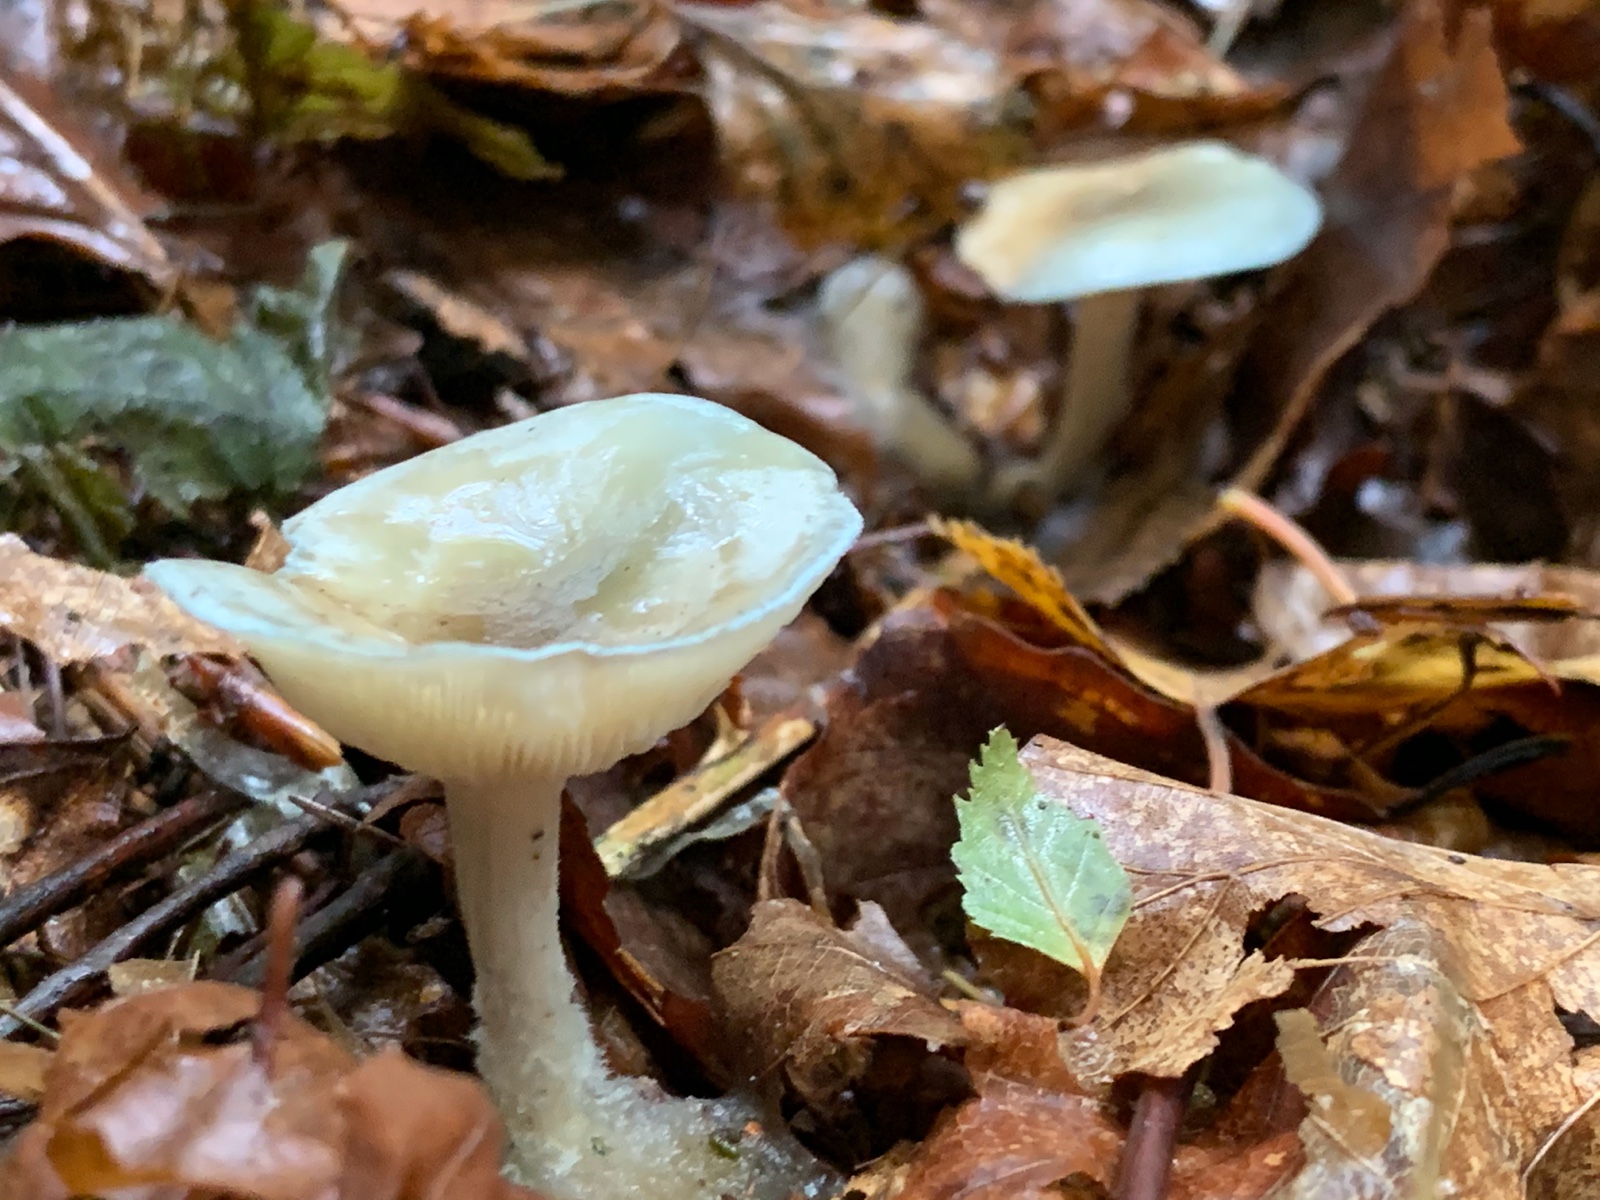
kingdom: Fungi
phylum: Basidiomycota
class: Agaricomycetes
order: Agaricales
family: Tricholomataceae
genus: Clitocybe
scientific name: Clitocybe odora
